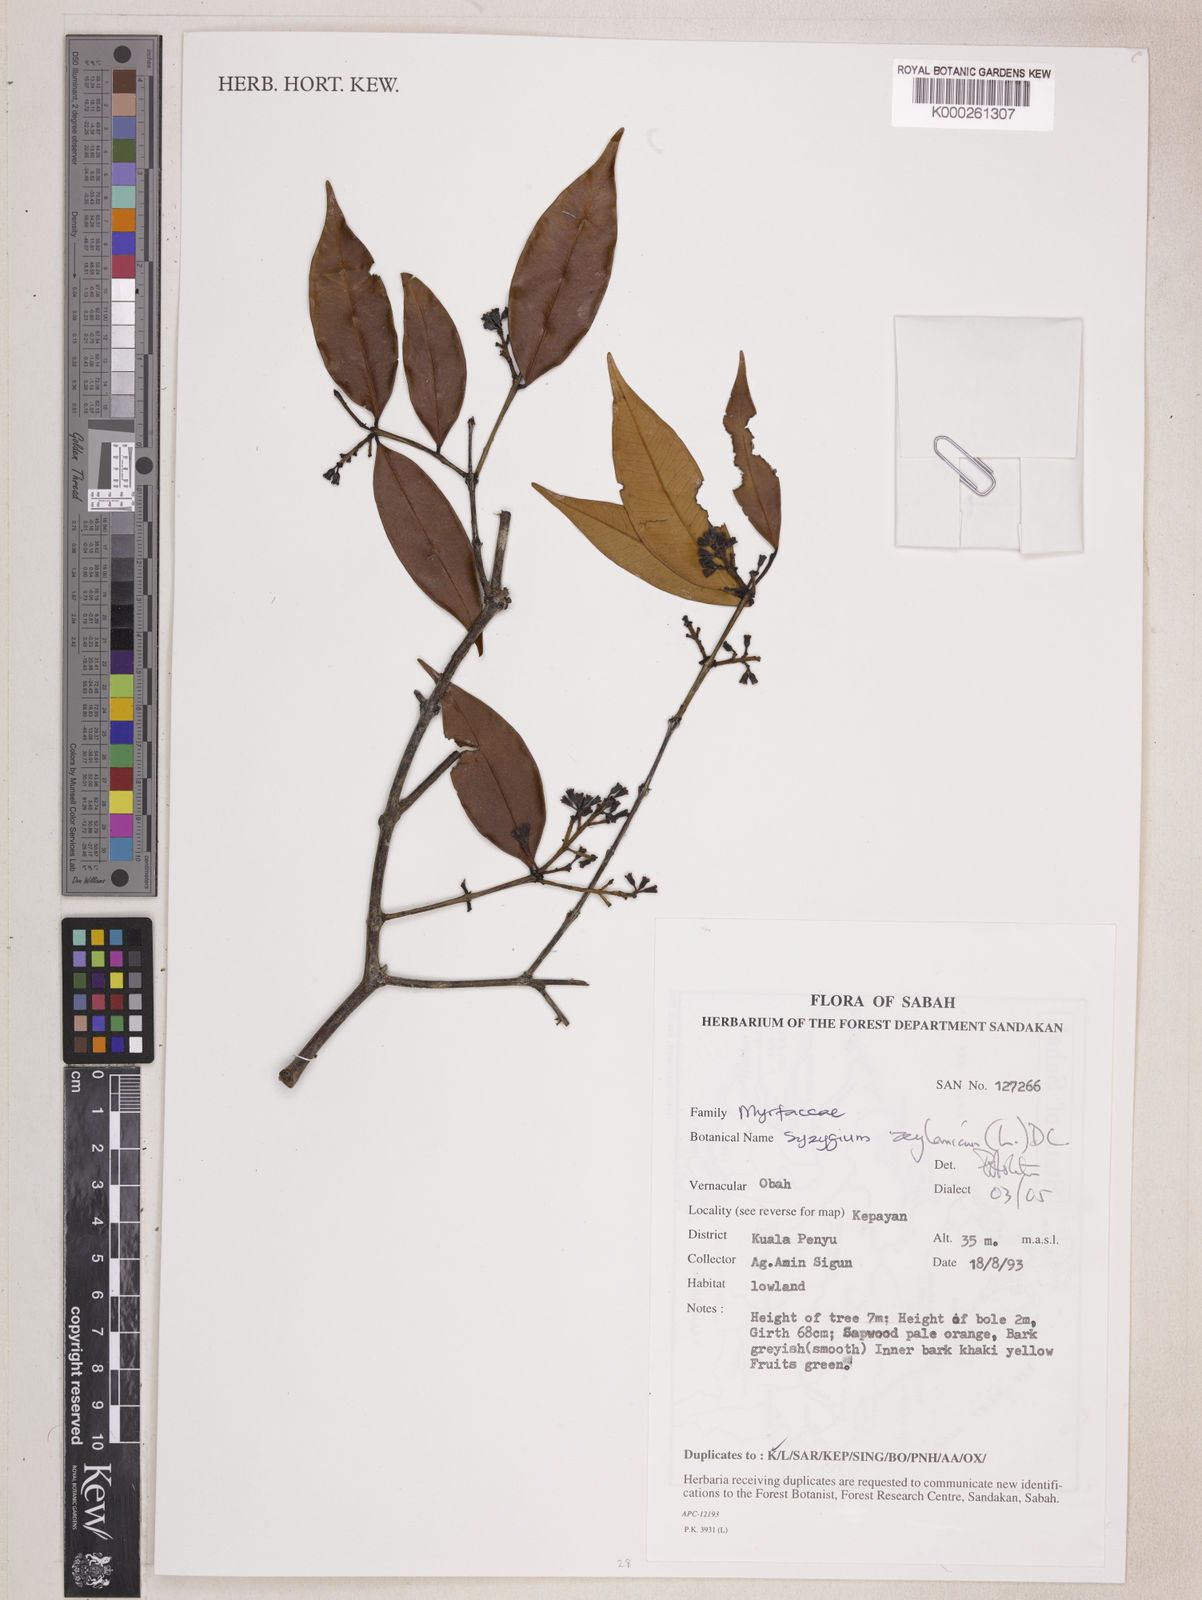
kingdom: Plantae
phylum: Tracheophyta
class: Magnoliopsida
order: Myrtales
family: Myrtaceae
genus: Syzygium
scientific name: Syzygium zeylanicum
